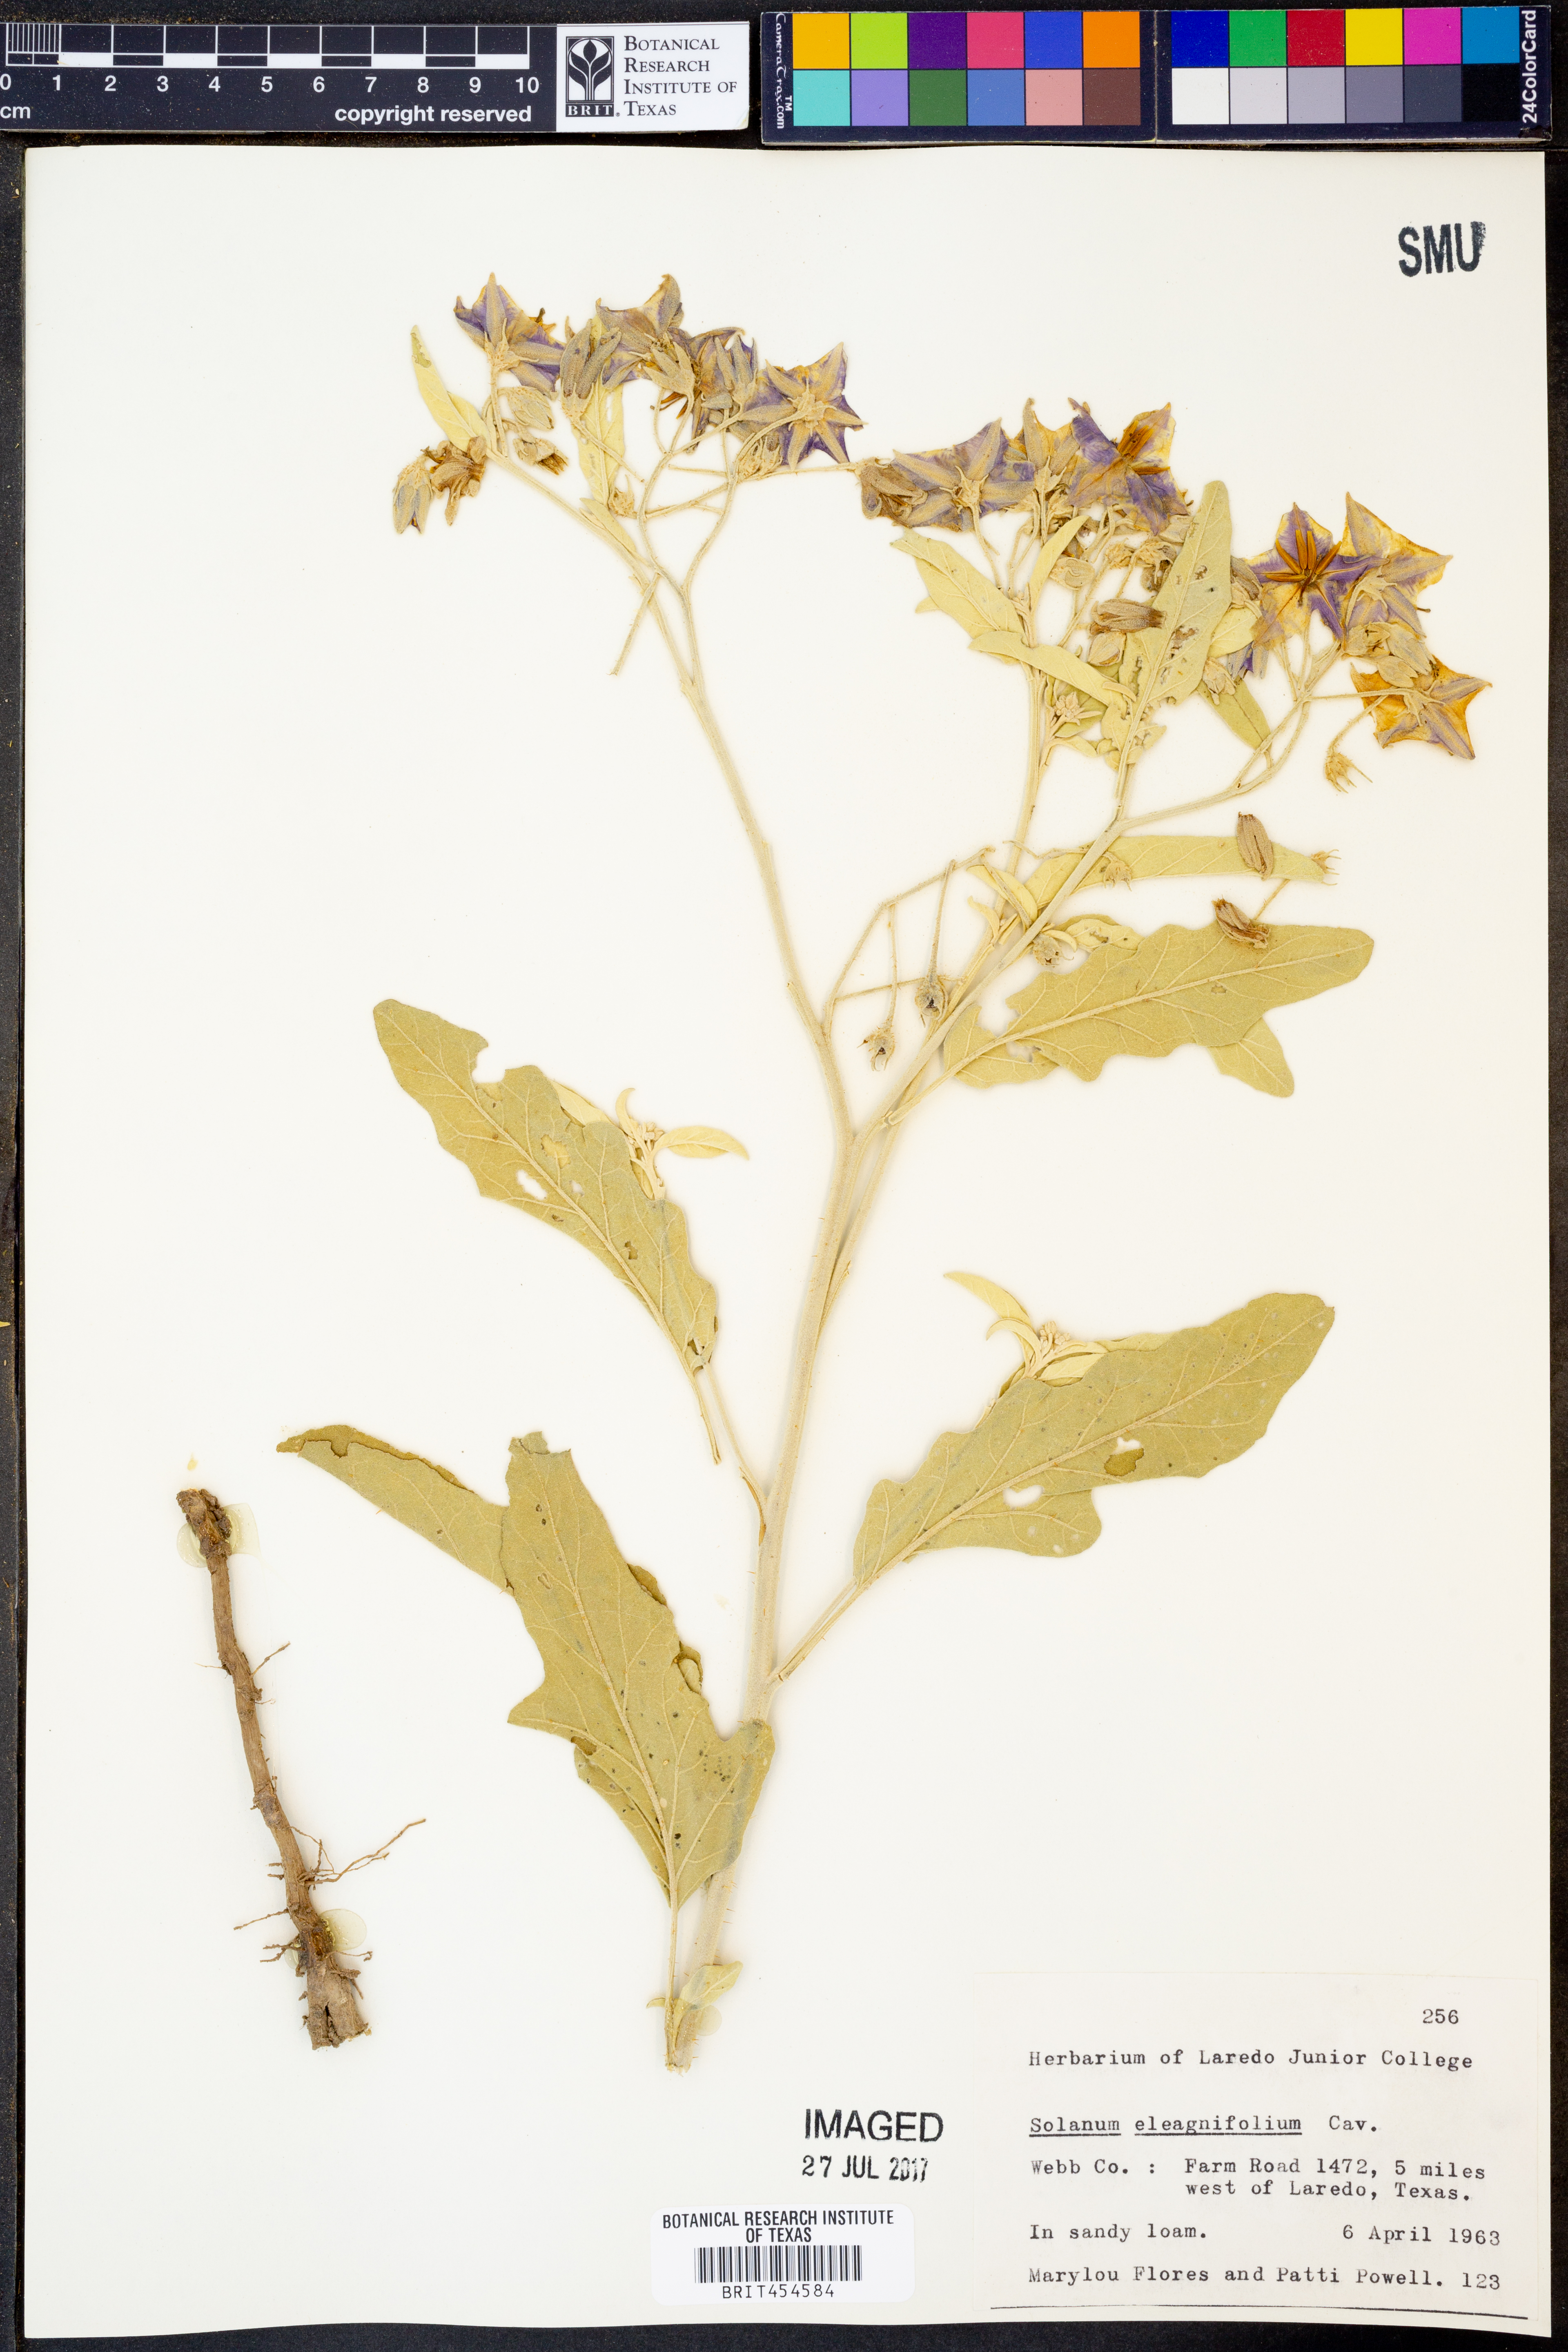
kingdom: Plantae
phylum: Tracheophyta
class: Magnoliopsida
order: Solanales
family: Solanaceae
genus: Solanum
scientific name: Solanum elaeagnifolium
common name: Silverleaf nightshade
